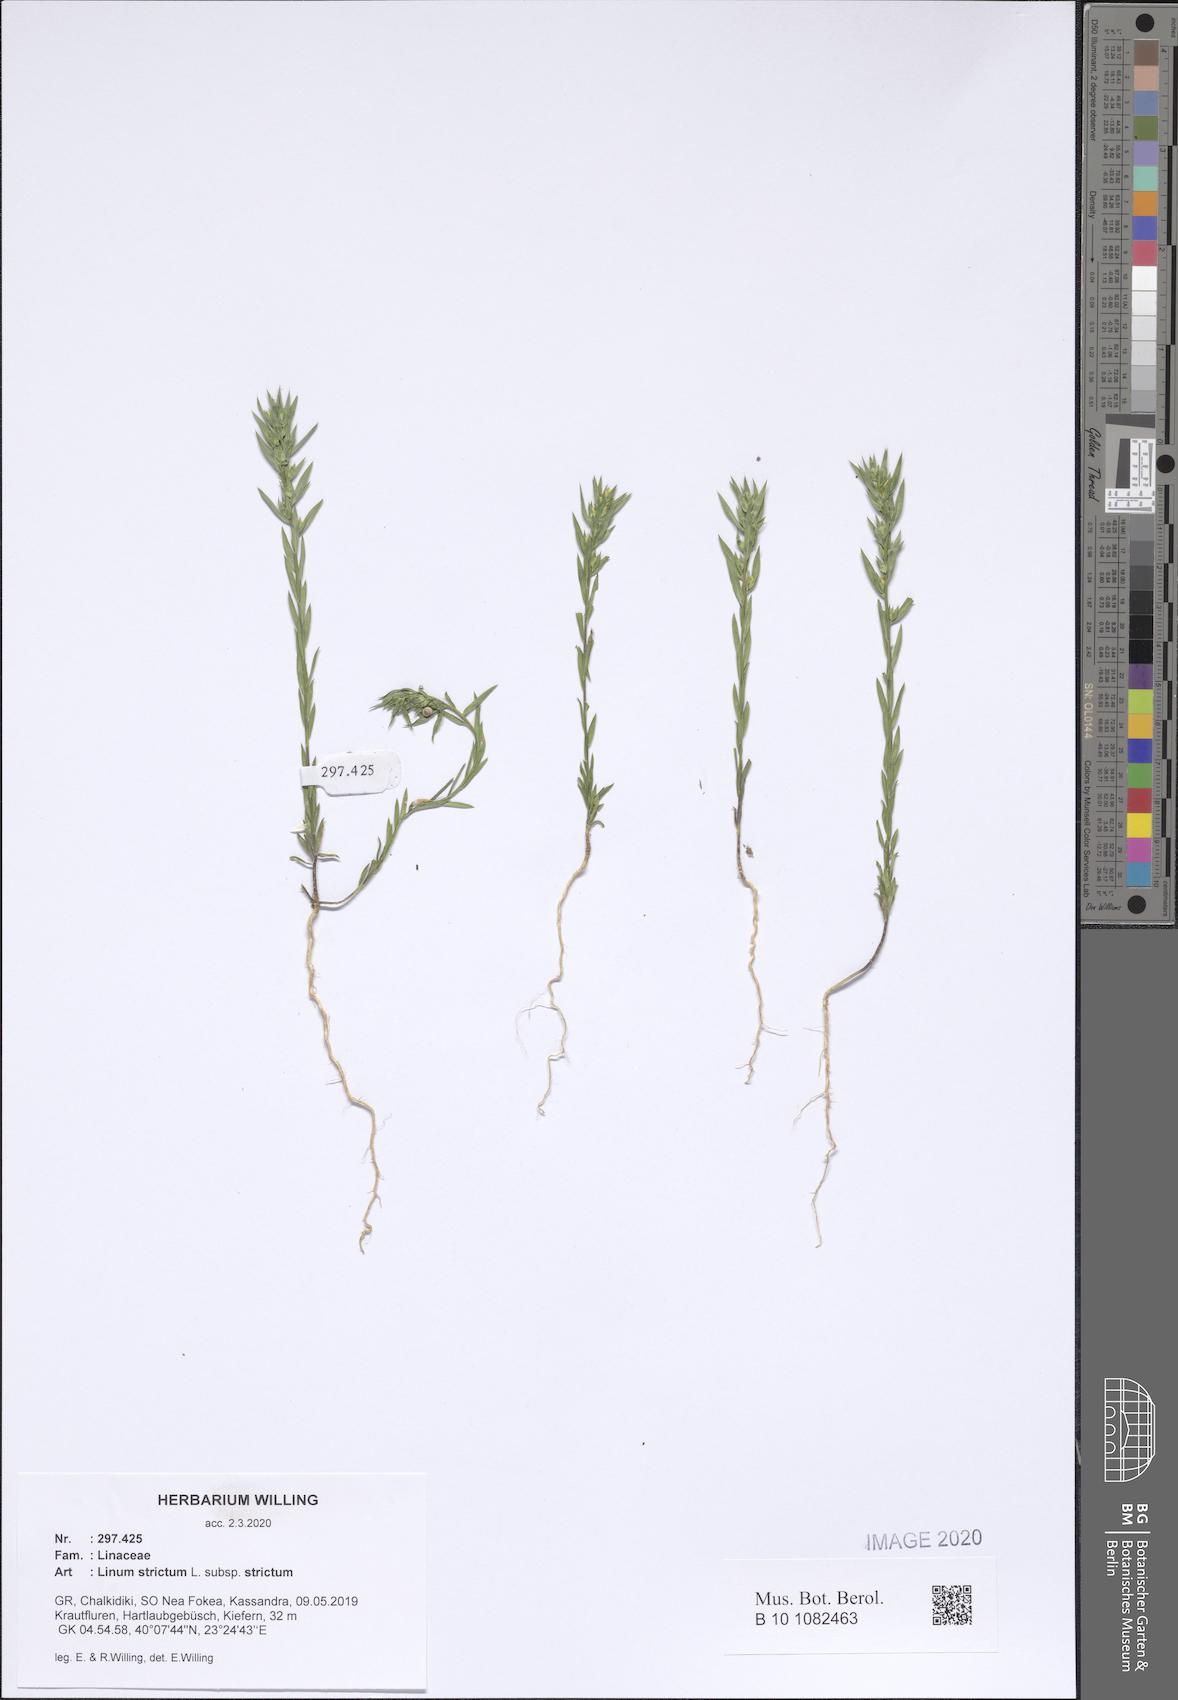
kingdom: Plantae
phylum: Tracheophyta
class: Magnoliopsida
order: Malpighiales
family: Linaceae
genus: Linum
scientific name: Linum strictum
